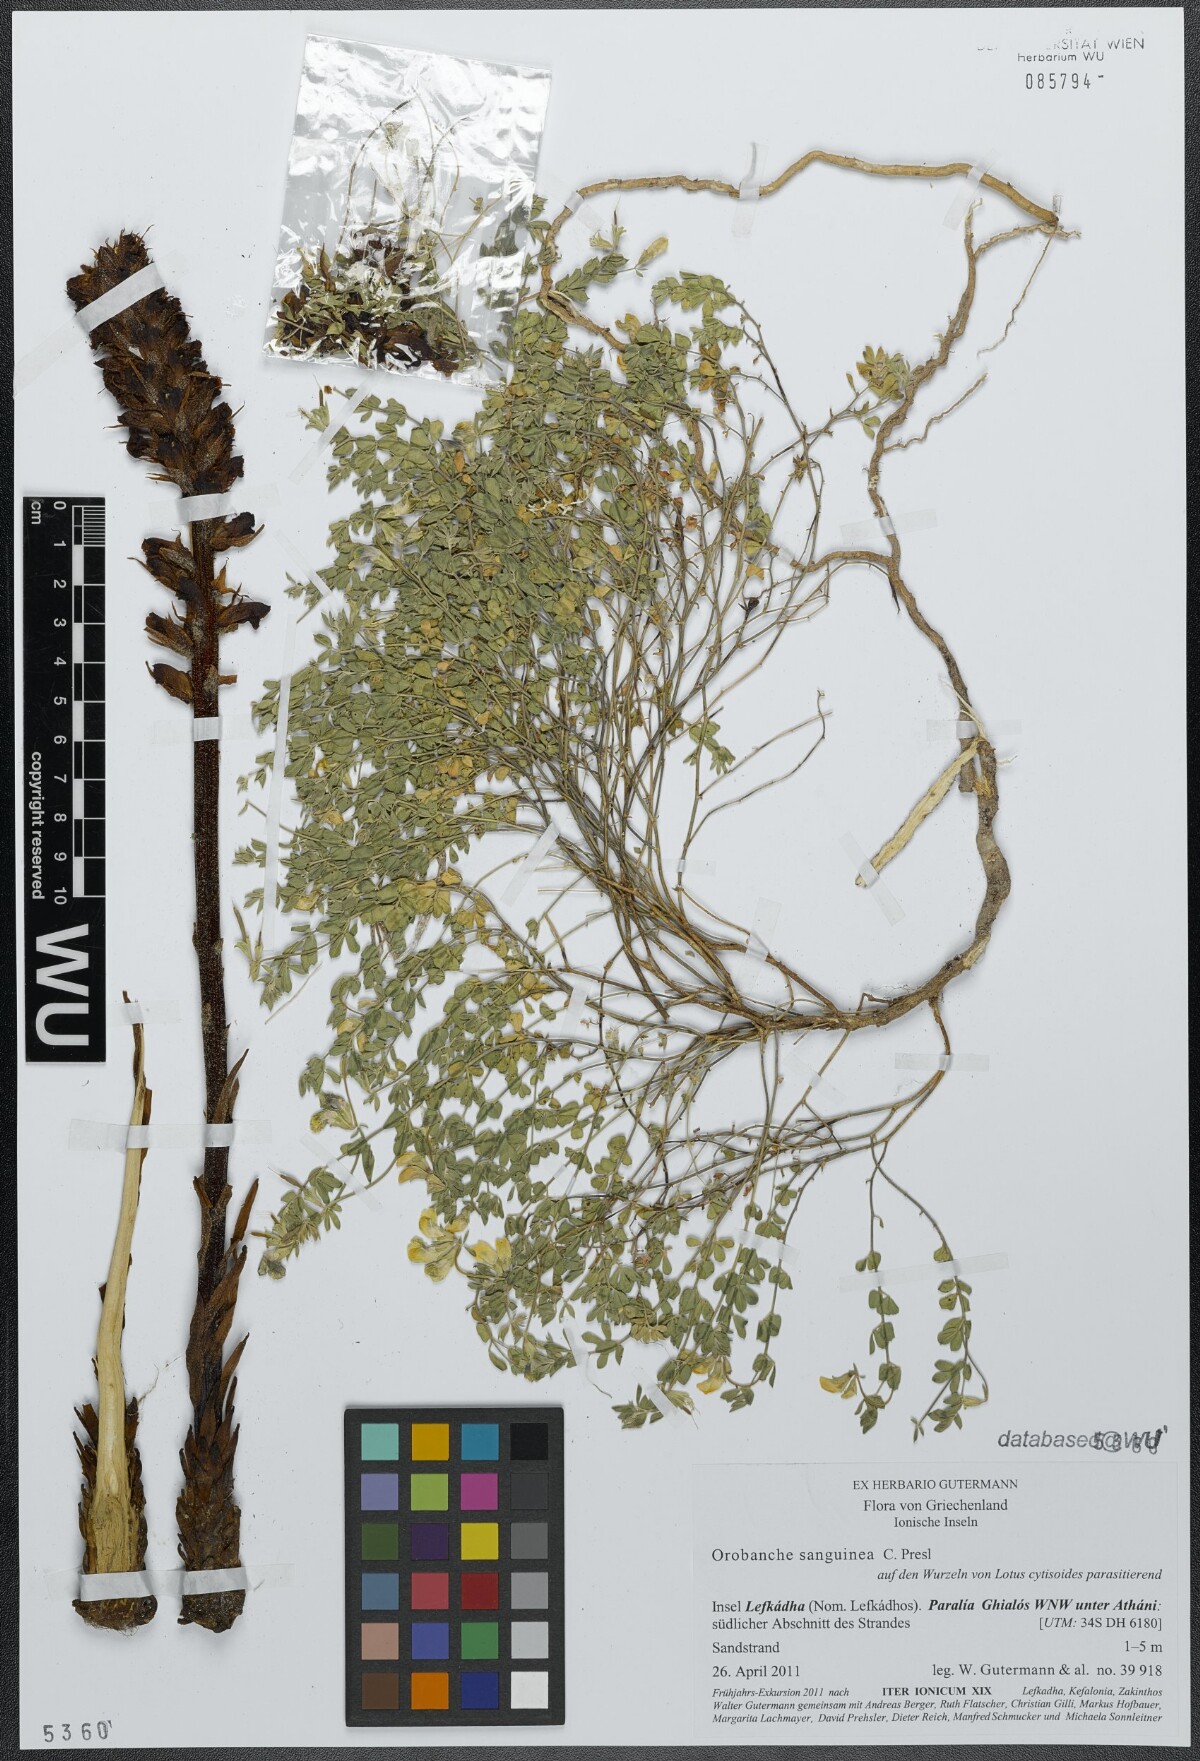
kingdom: Plantae
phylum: Tracheophyta
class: Magnoliopsida
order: Lamiales
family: Orobanchaceae
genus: Orobanche
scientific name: Orobanche sanguinea
